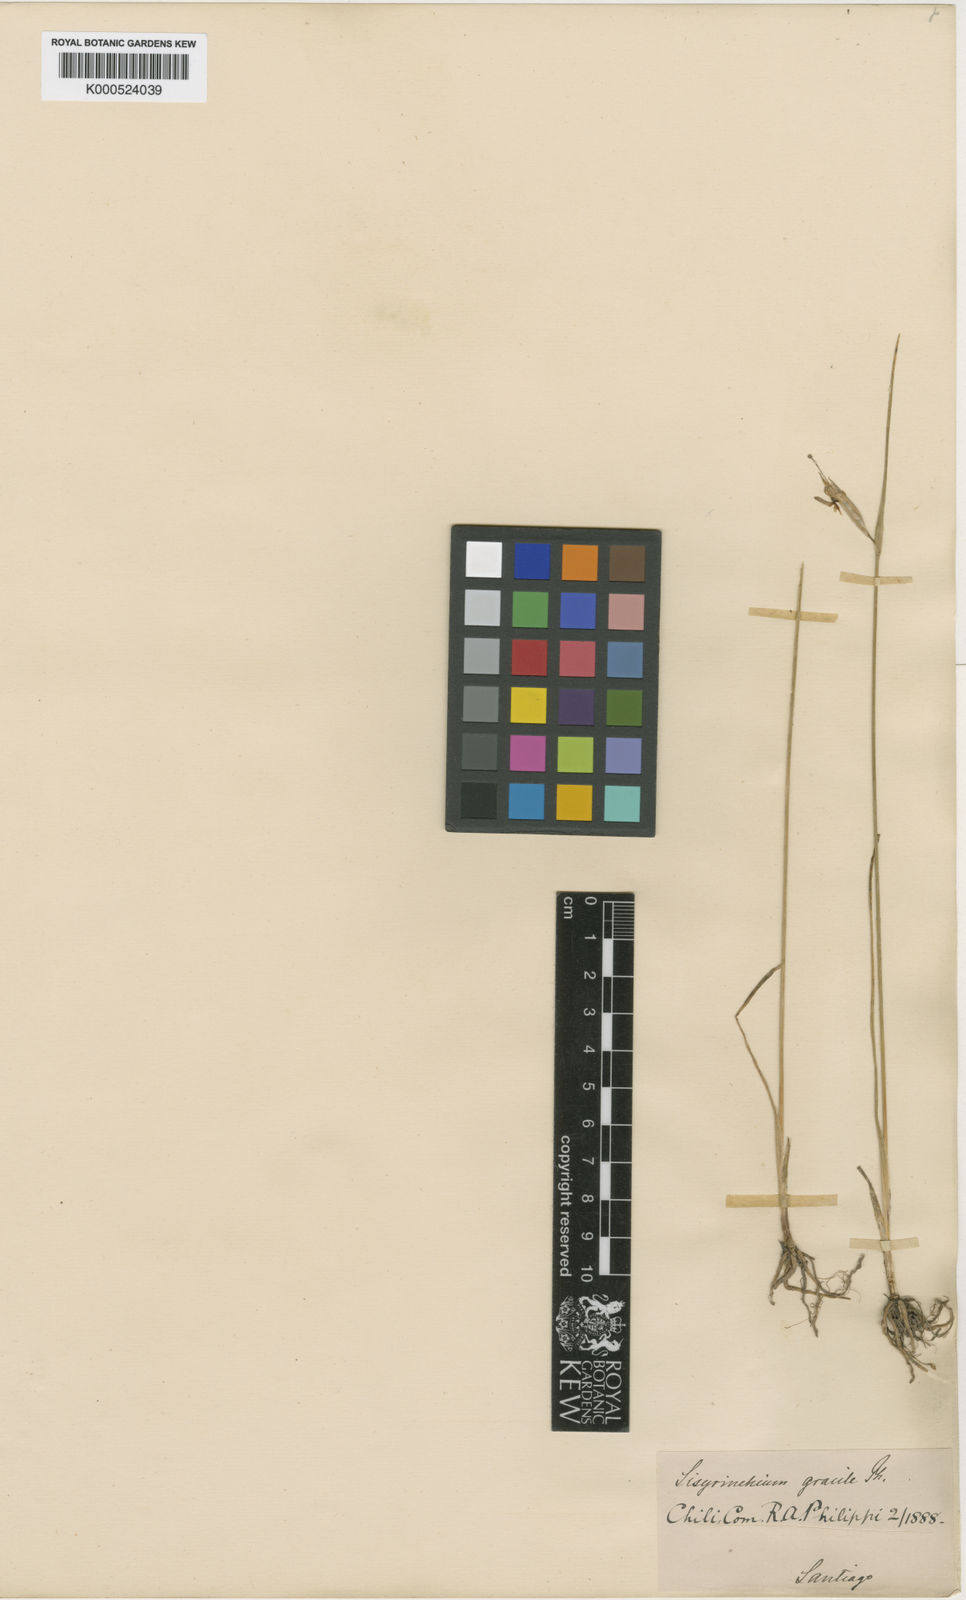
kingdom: Plantae
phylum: Tracheophyta
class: Liliopsida
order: Asparagales
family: Iridaceae
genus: Olsynium
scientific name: Olsynium junceum
